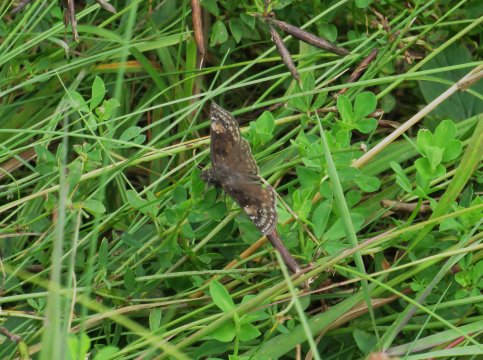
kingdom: Animalia
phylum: Arthropoda
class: Insecta
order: Lepidoptera
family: Hesperiidae
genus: Gesta
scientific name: Gesta
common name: Horace's Duskywing
